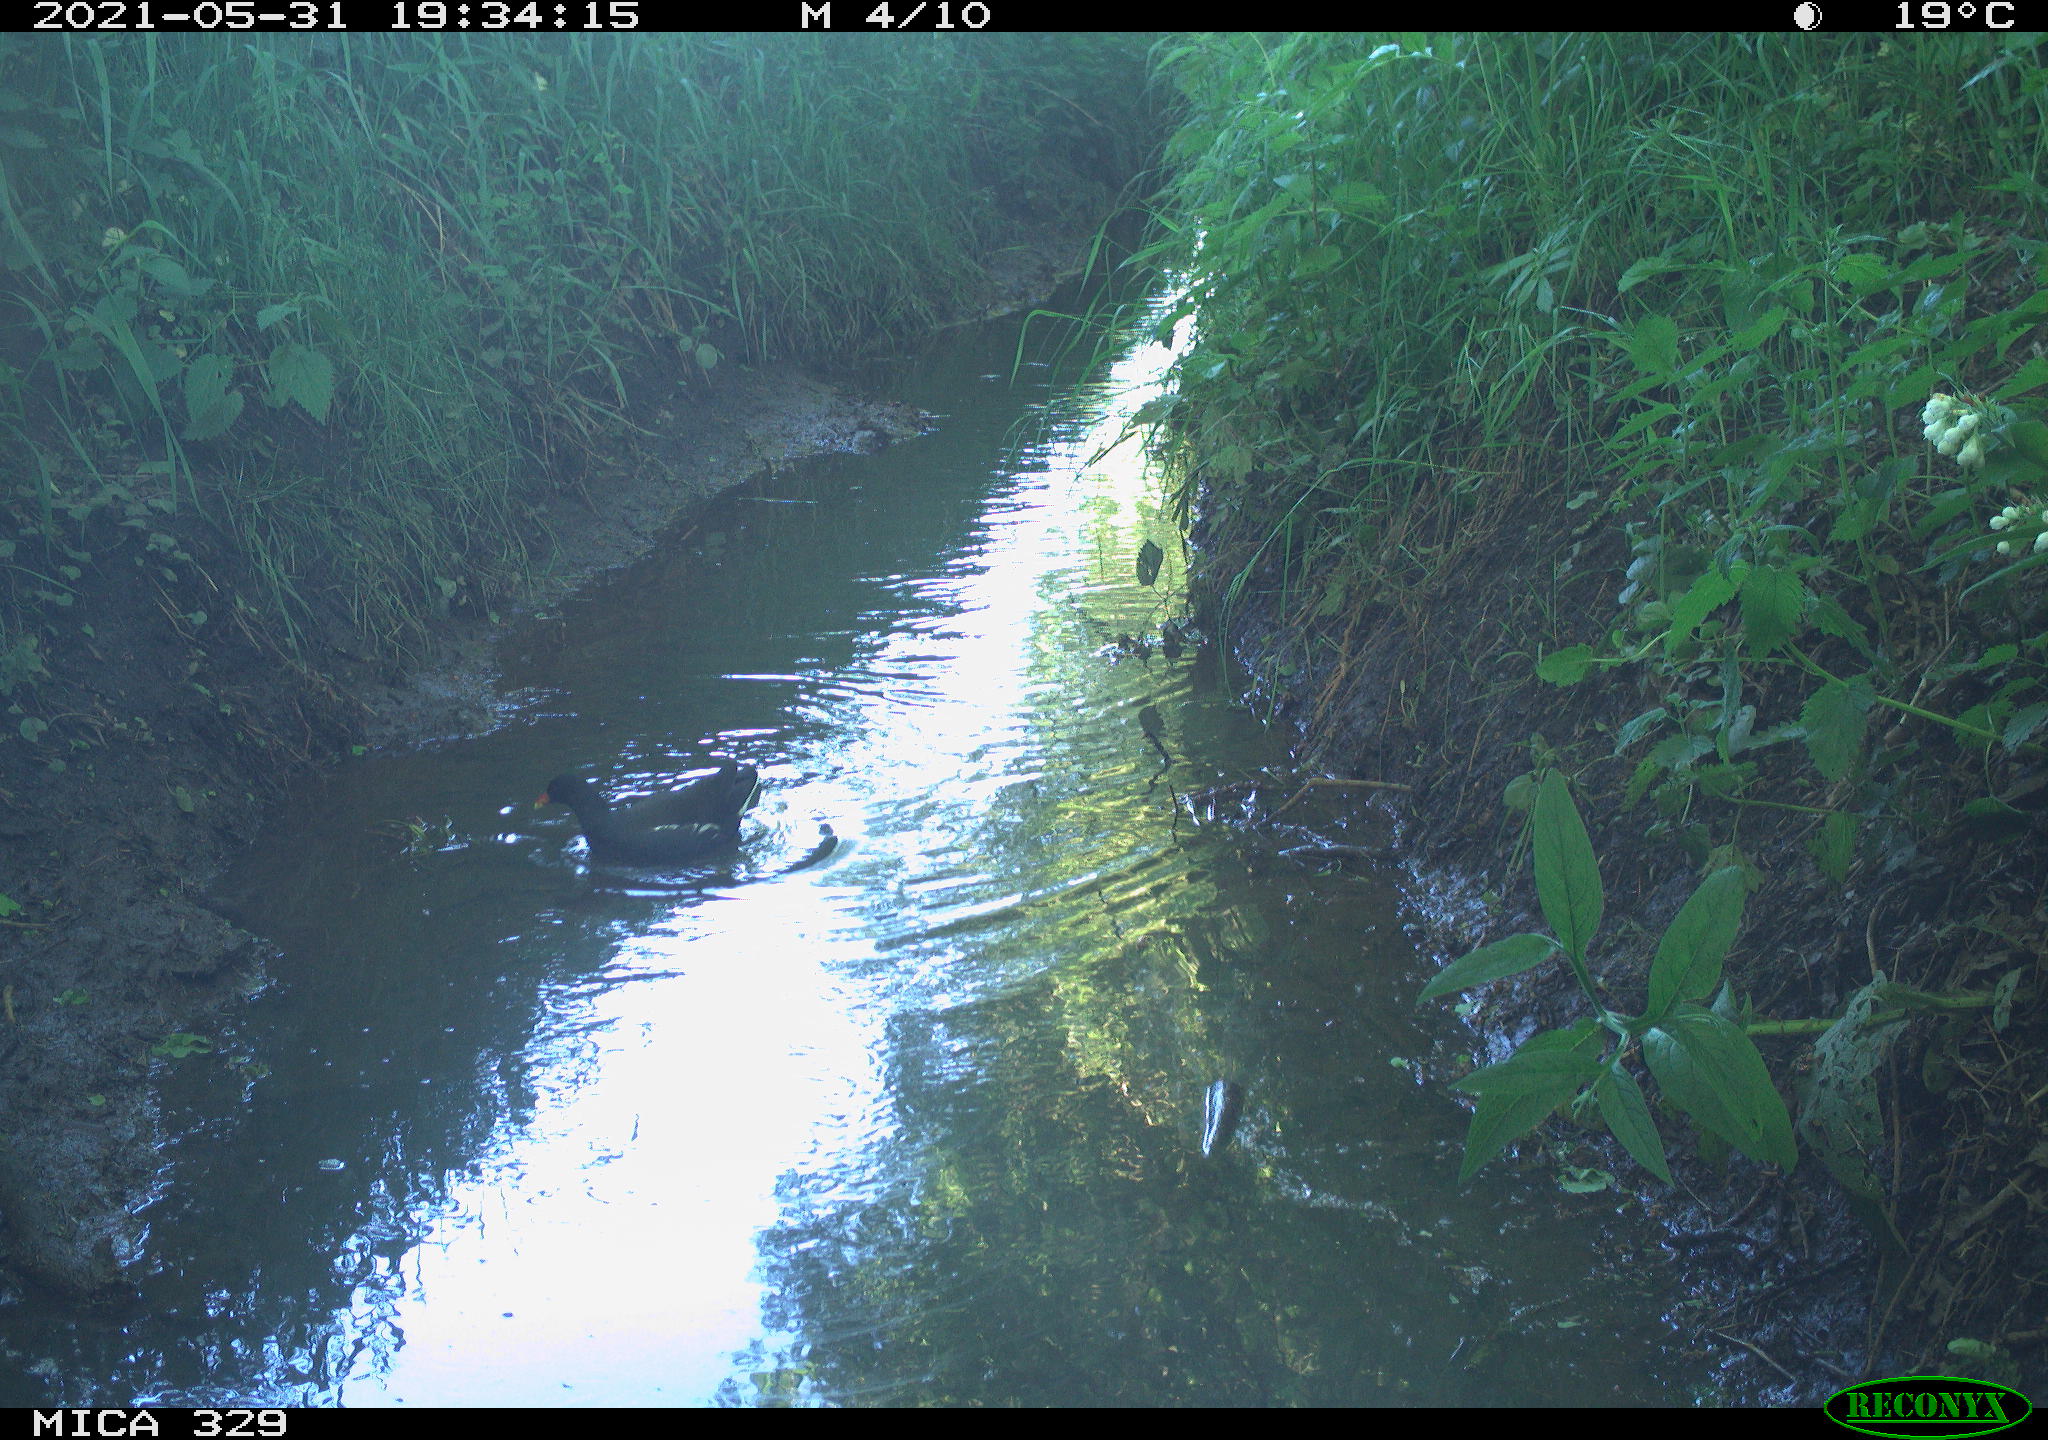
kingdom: Animalia
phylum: Chordata
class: Aves
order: Gruiformes
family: Rallidae
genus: Gallinula
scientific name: Gallinula chloropus
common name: Common moorhen
